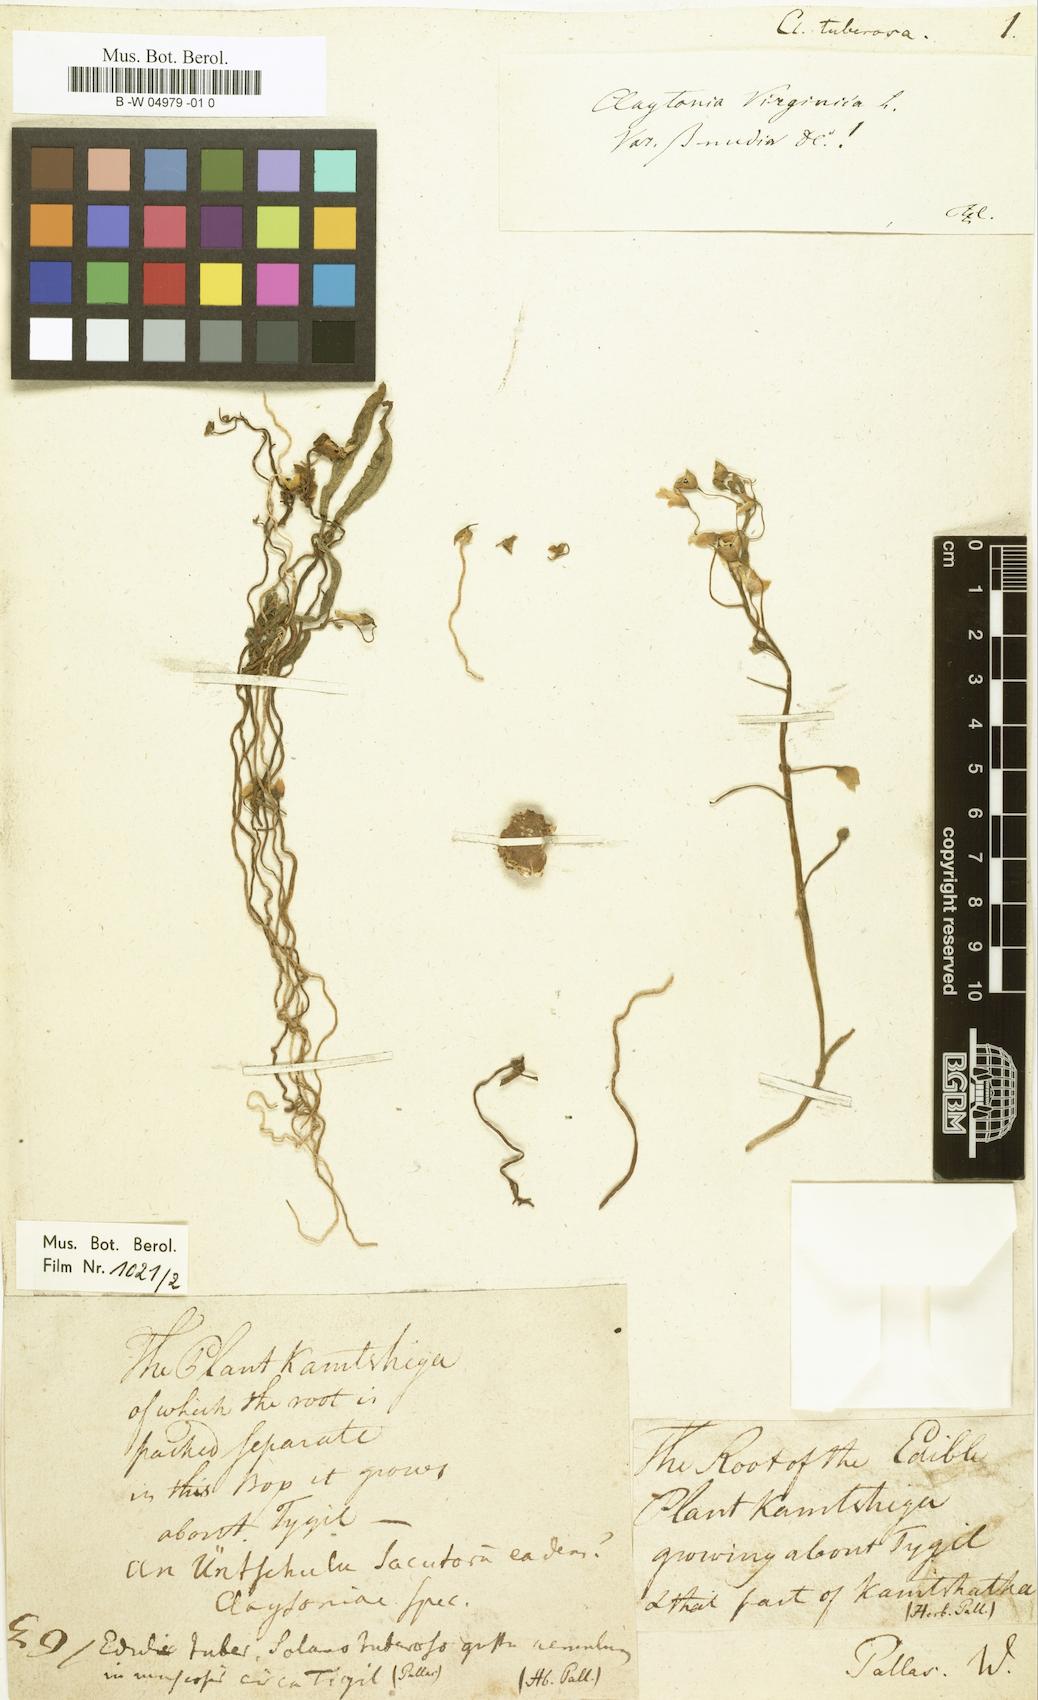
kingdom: Plantae
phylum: Tracheophyta
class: Magnoliopsida
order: Caryophyllales
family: Montiaceae
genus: Claytonia
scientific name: Claytonia tuberosa
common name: Beringian spring beauty
